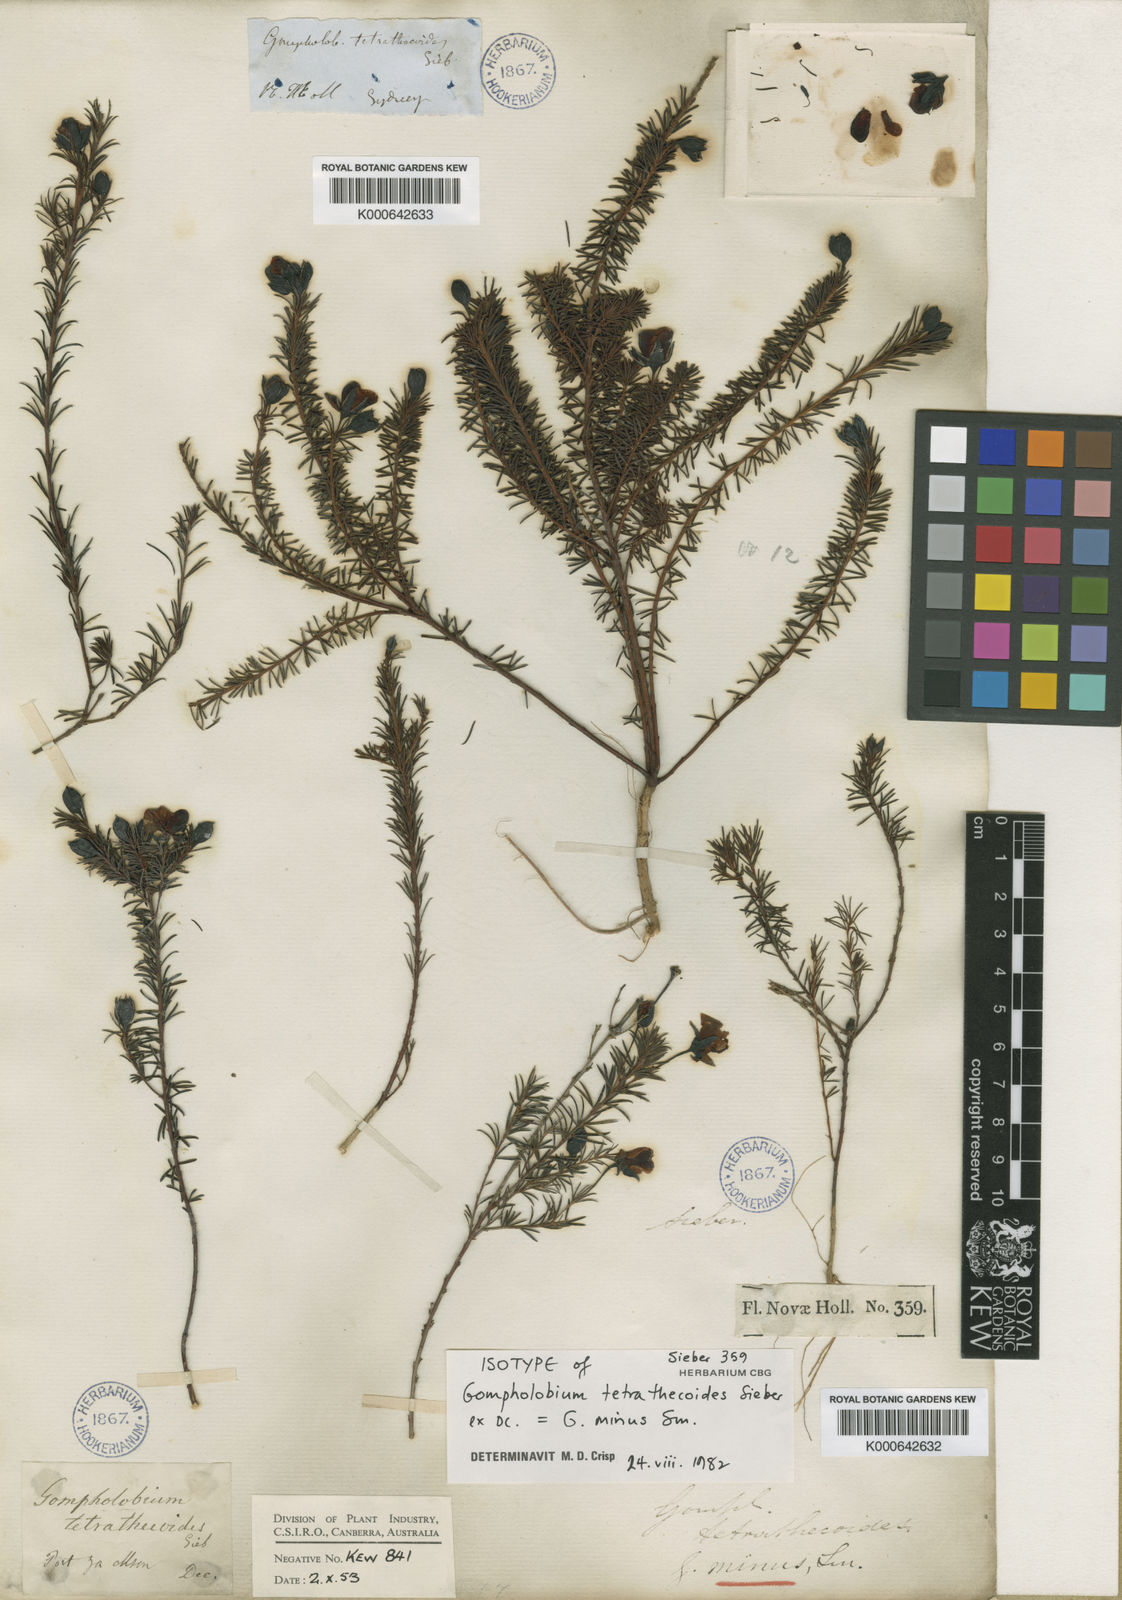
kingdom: Plantae
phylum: Tracheophyta
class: Magnoliopsida
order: Fabales
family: Fabaceae
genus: Gompholobium
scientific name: Gompholobium minus
